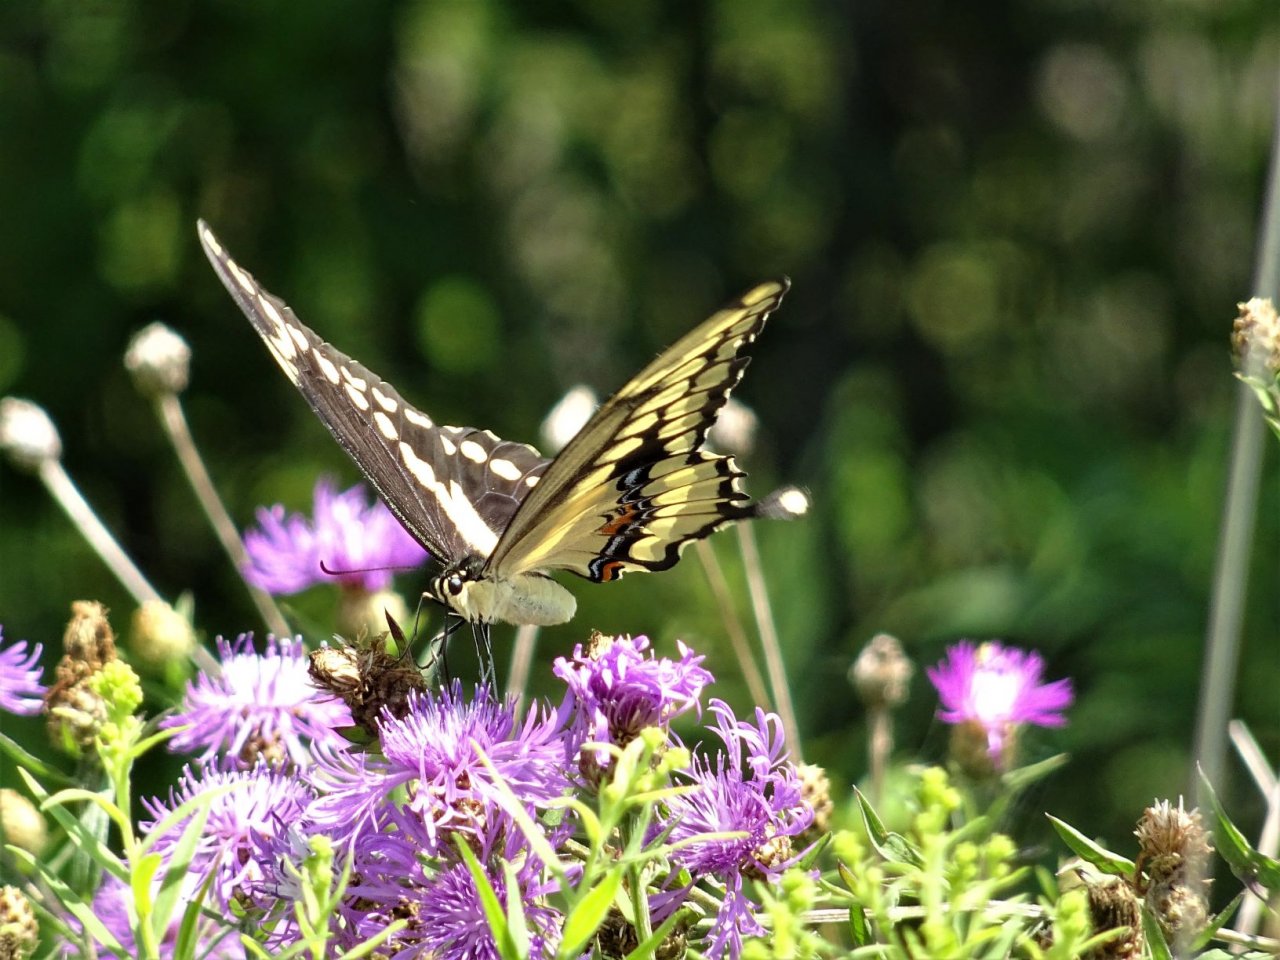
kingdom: Animalia
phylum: Arthropoda
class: Insecta
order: Lepidoptera
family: Papilionidae
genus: Papilio
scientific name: Papilio cresphontes
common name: Eastern Giant Swallowtail
